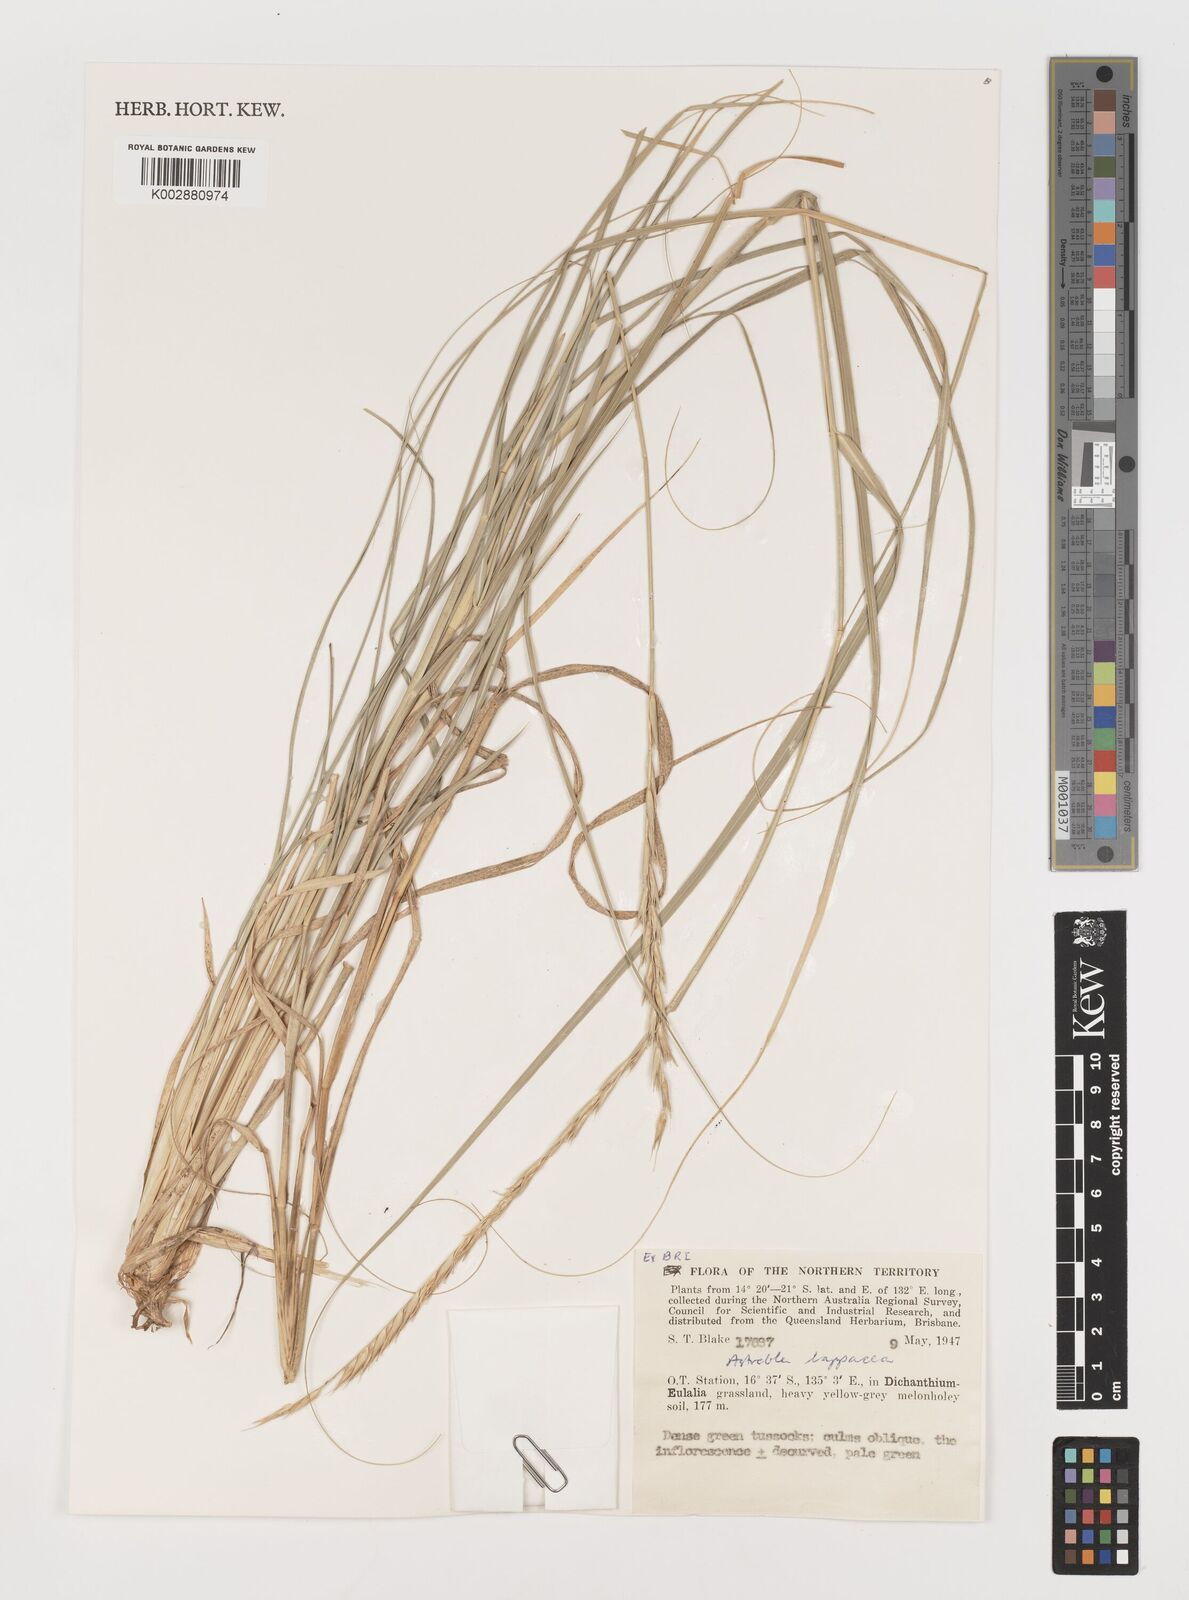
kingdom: Plantae
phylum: Tracheophyta
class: Liliopsida
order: Poales
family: Poaceae
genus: Astrebla
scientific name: Astrebla lappacea
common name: Curly mitchell grass
